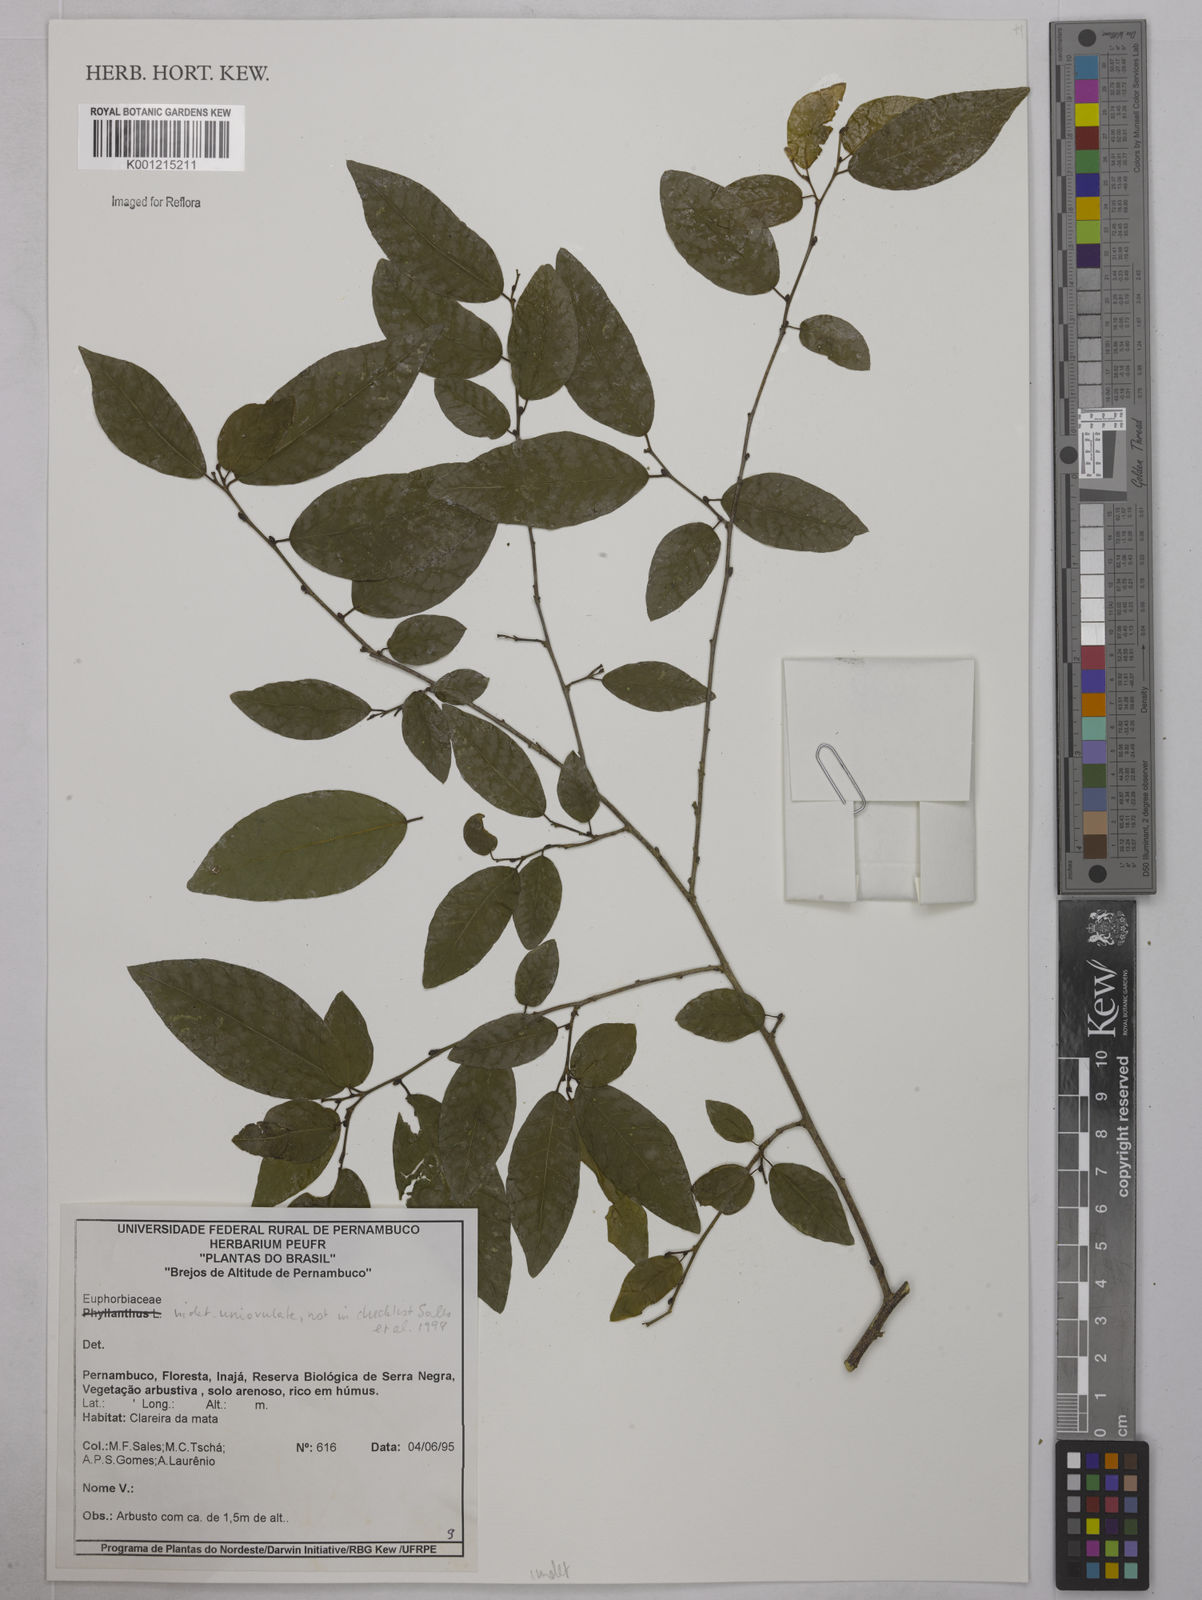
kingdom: Plantae
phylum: Tracheophyta
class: Magnoliopsida
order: Malpighiales
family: Euphorbiaceae
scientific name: Euphorbiaceae
